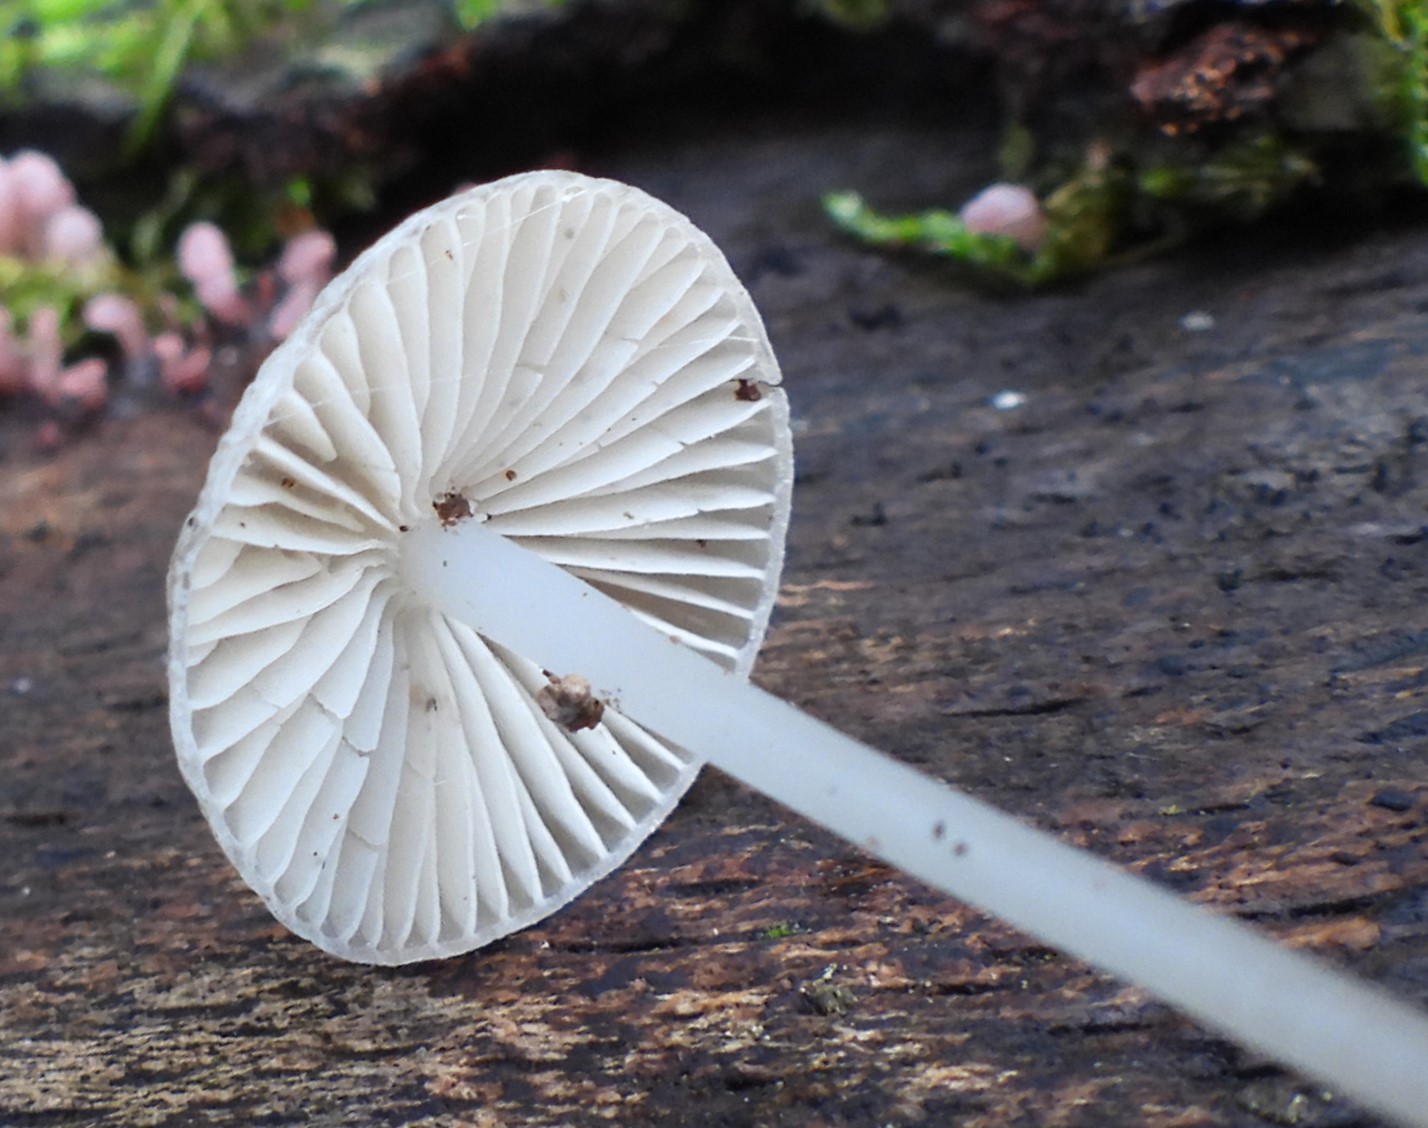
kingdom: Fungi
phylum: Basidiomycota
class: Agaricomycetes
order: Agaricales
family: Mycenaceae
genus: Mycena
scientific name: Mycena vitilis
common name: blankstokket huesvamp
